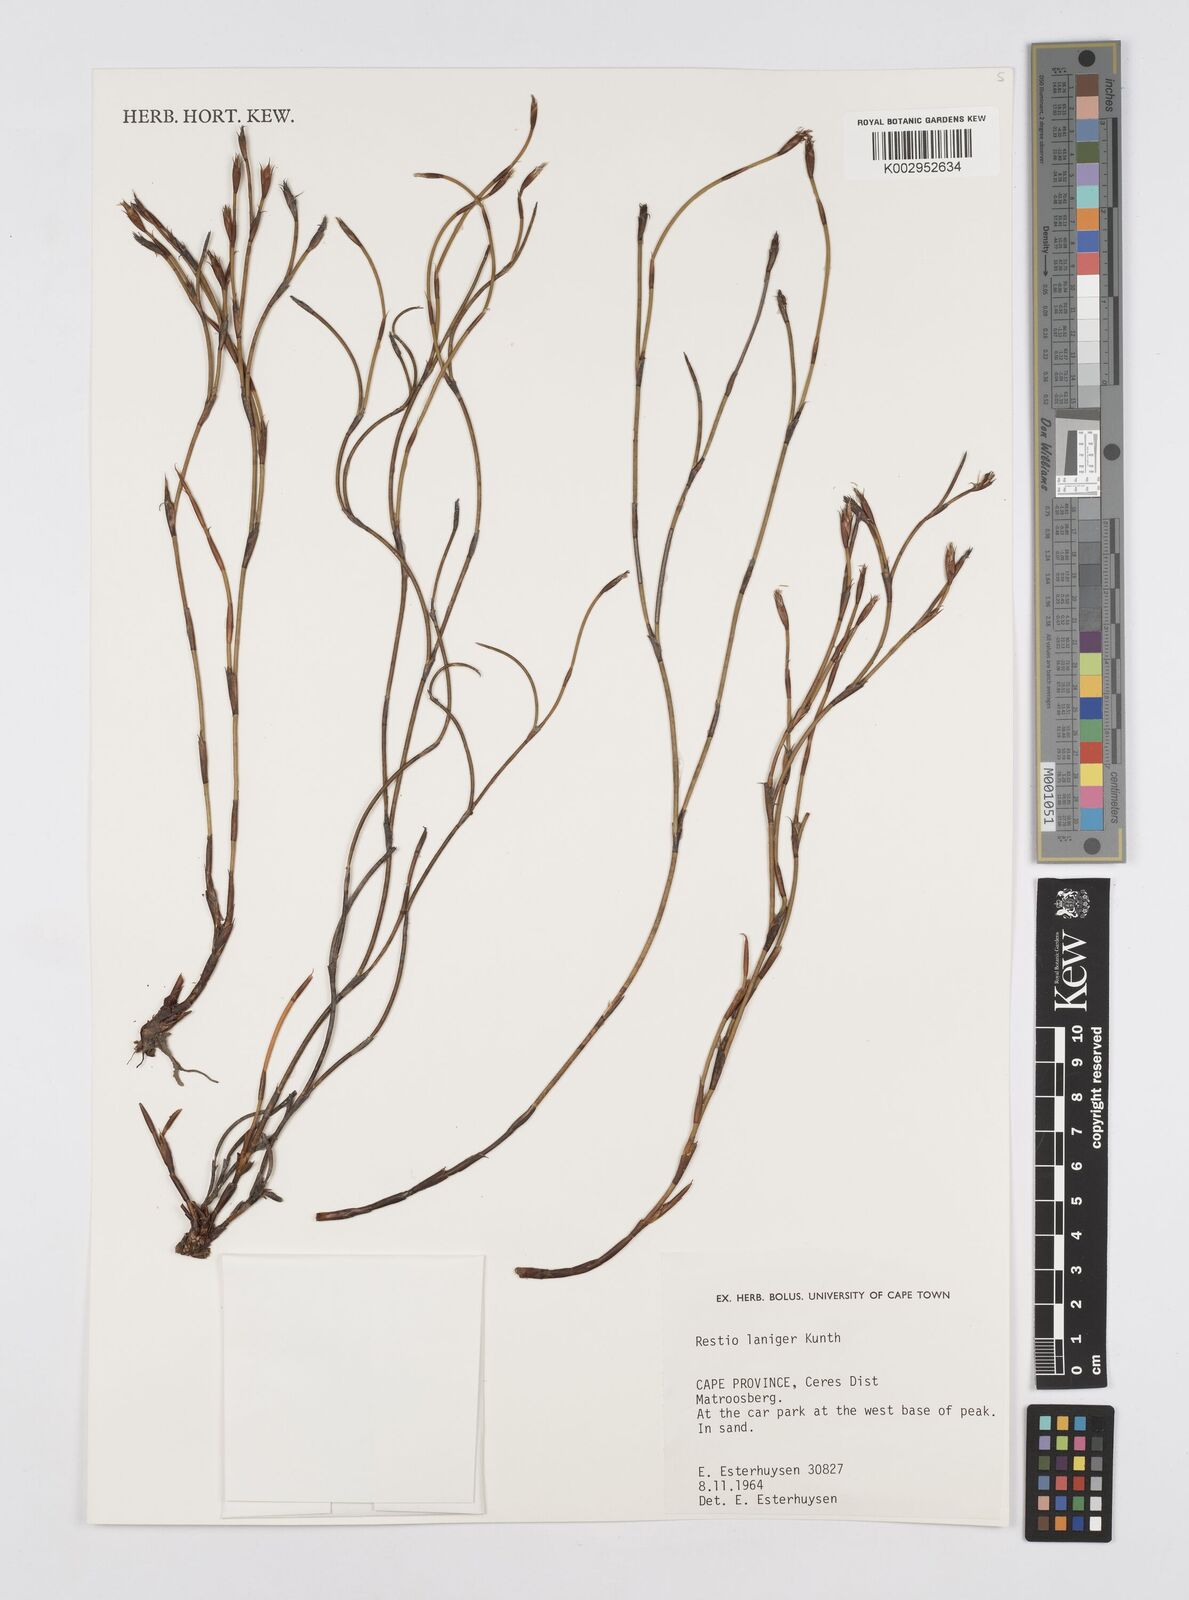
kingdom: Plantae
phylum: Tracheophyta
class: Liliopsida
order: Poales
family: Restionaceae
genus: Restio
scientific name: Restio laniger
